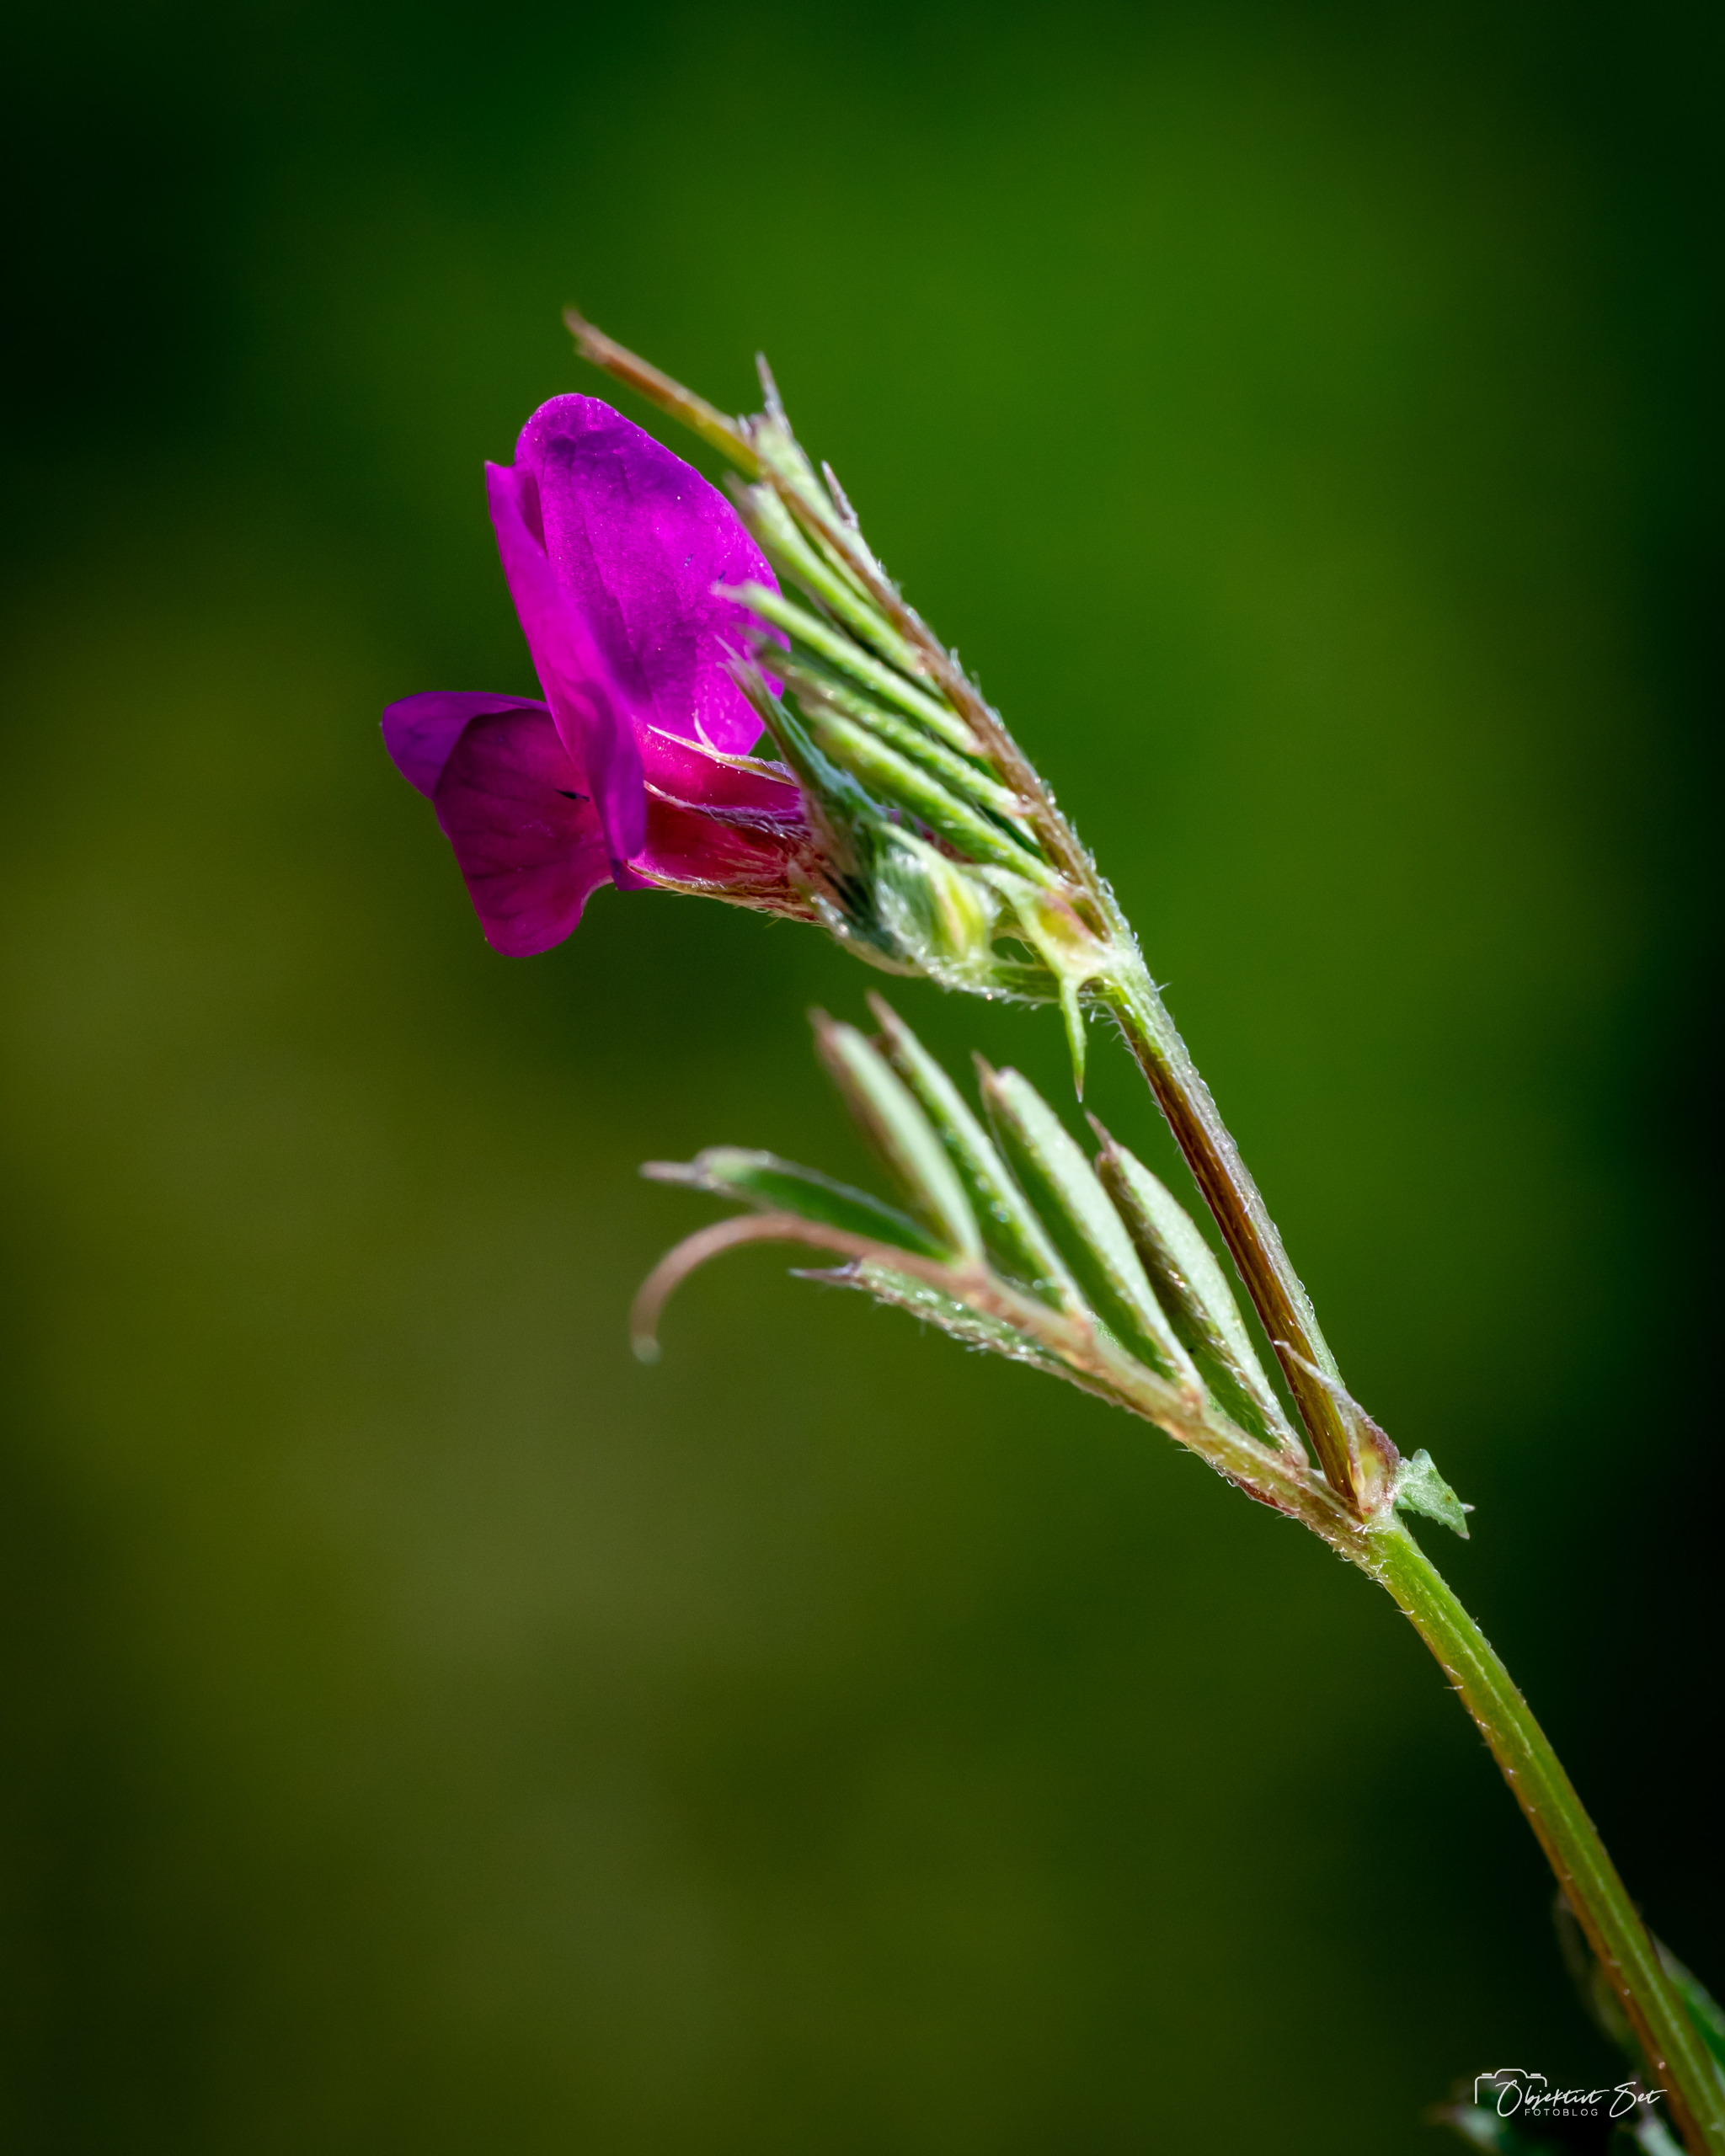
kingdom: Plantae
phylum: Tracheophyta
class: Magnoliopsida
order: Fabales
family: Fabaceae
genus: Vicia
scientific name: Vicia sativa
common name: Foder-vikke
